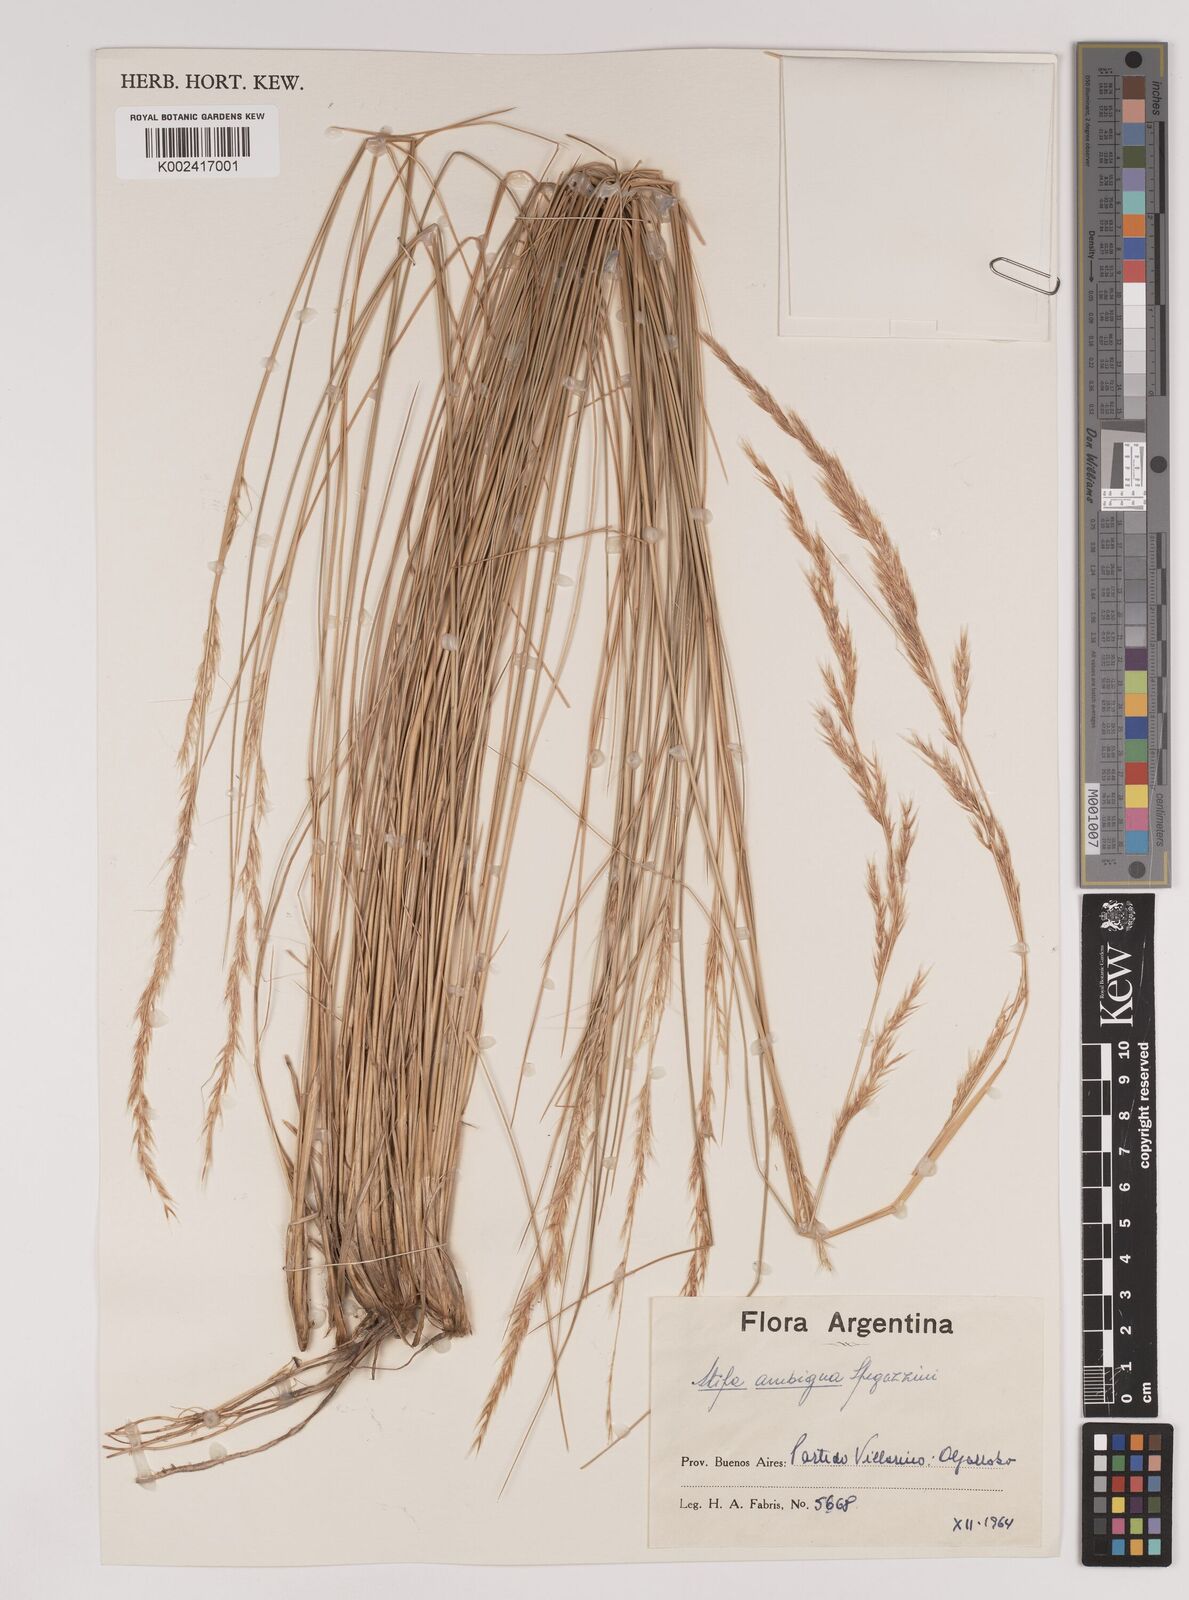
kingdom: Plantae
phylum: Tracheophyta
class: Liliopsida
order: Poales
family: Poaceae
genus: Amelichloa
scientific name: Amelichloa ambigua
